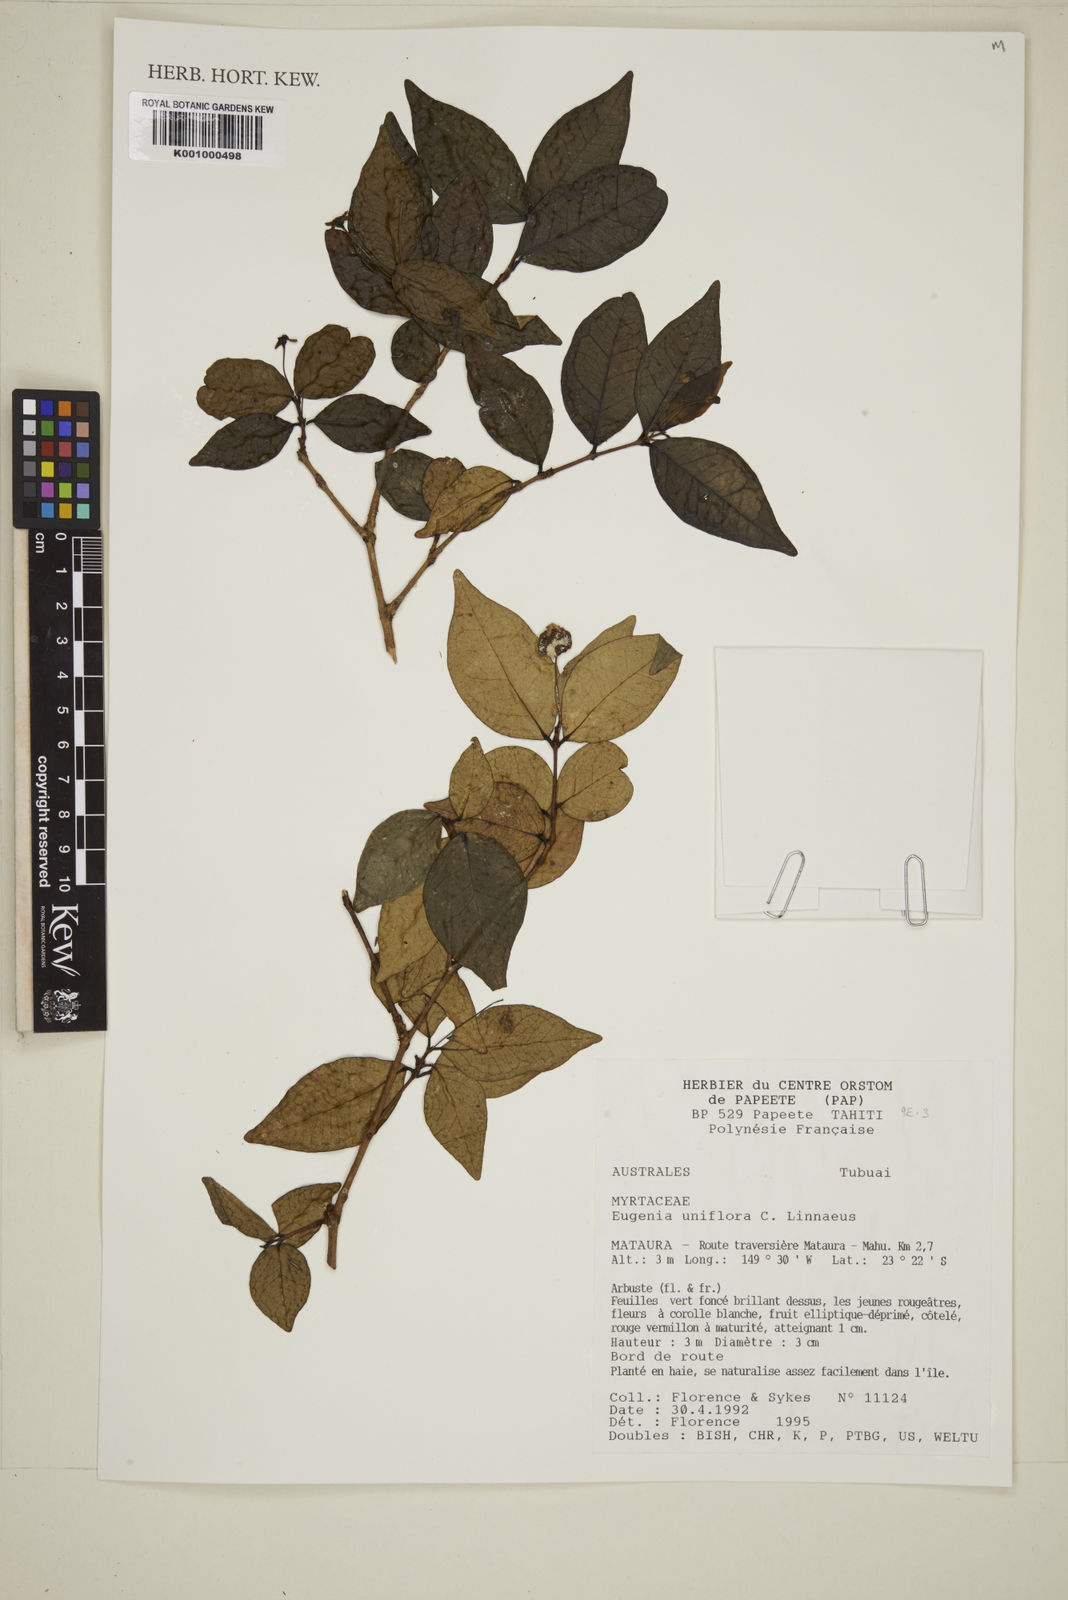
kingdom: Plantae
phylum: Tracheophyta
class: Magnoliopsida
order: Myrtales
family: Myrtaceae
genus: Eugenia
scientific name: Eugenia uniflora
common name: Surinam cherry
